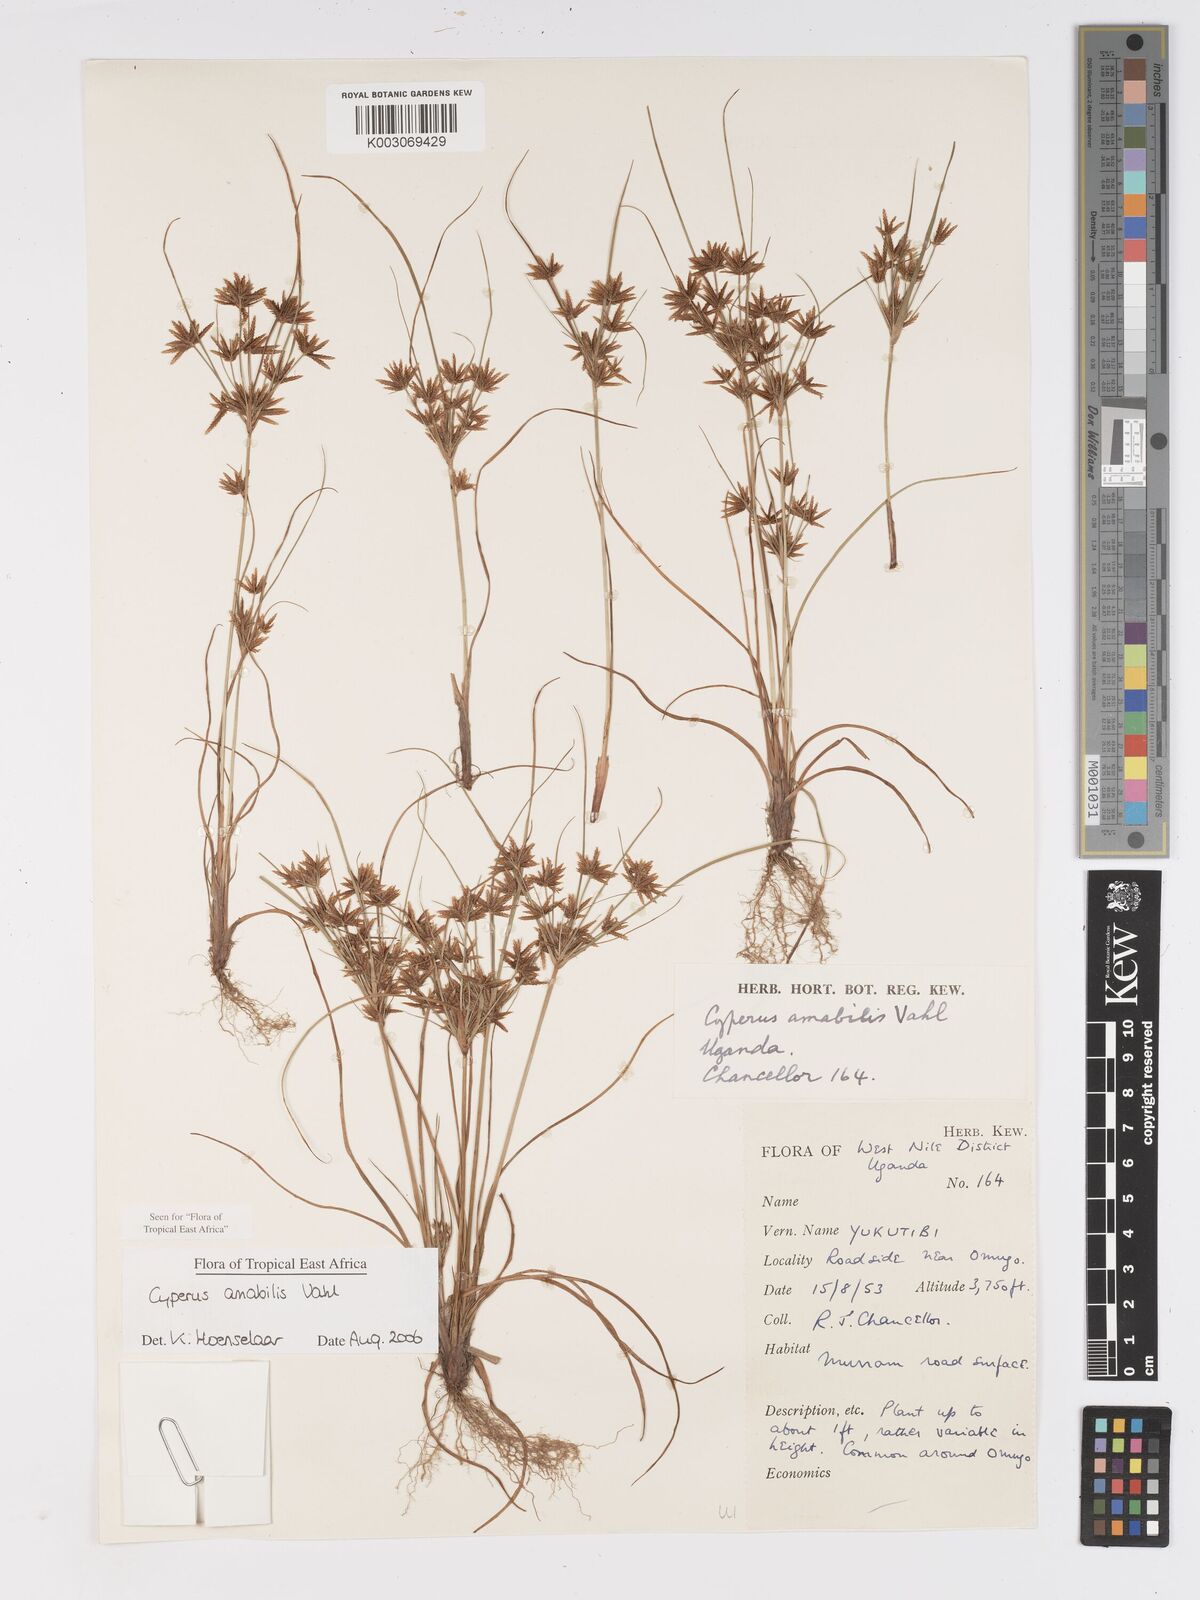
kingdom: Plantae
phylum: Tracheophyta
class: Liliopsida
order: Poales
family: Cyperaceae
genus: Cyperus
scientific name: Cyperus amabilis
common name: Foothill flat sedge
